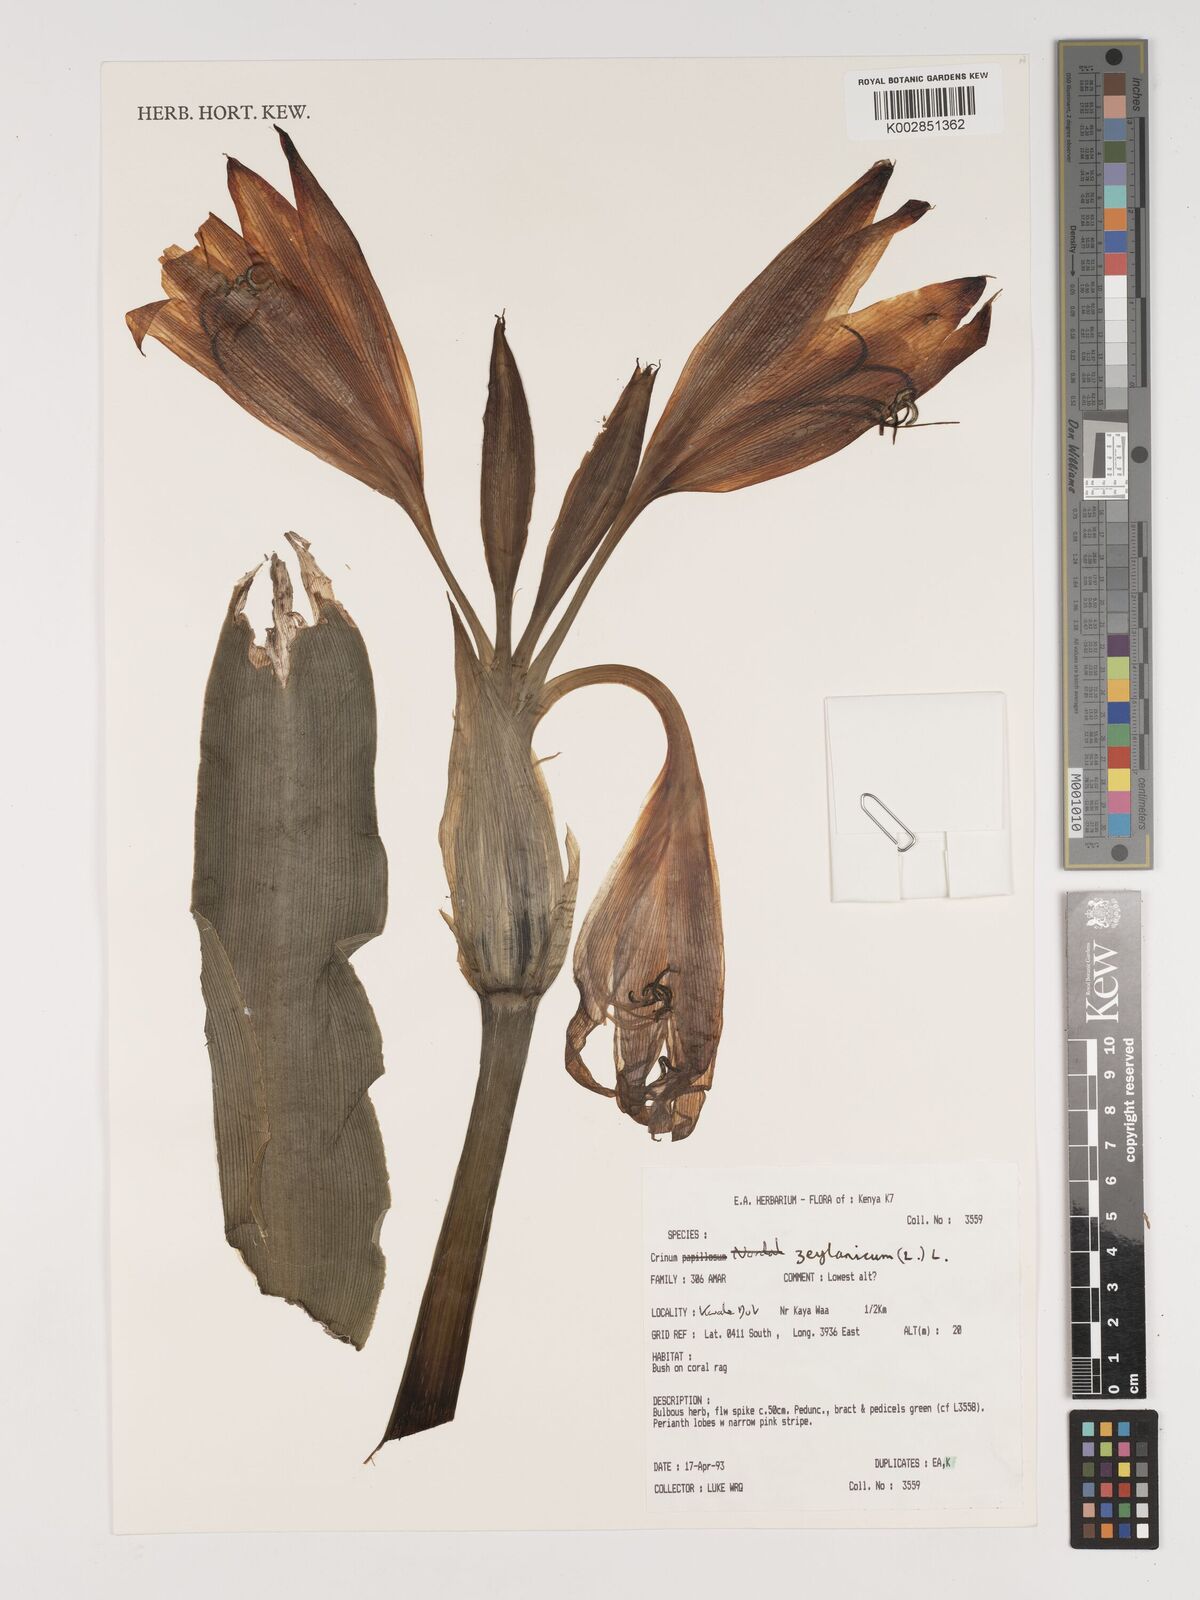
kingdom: Plantae
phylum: Tracheophyta
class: Liliopsida
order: Asparagales
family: Amaryllidaceae
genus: Crinum
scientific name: Crinum zeylanicum
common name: Ceylon swamplily
